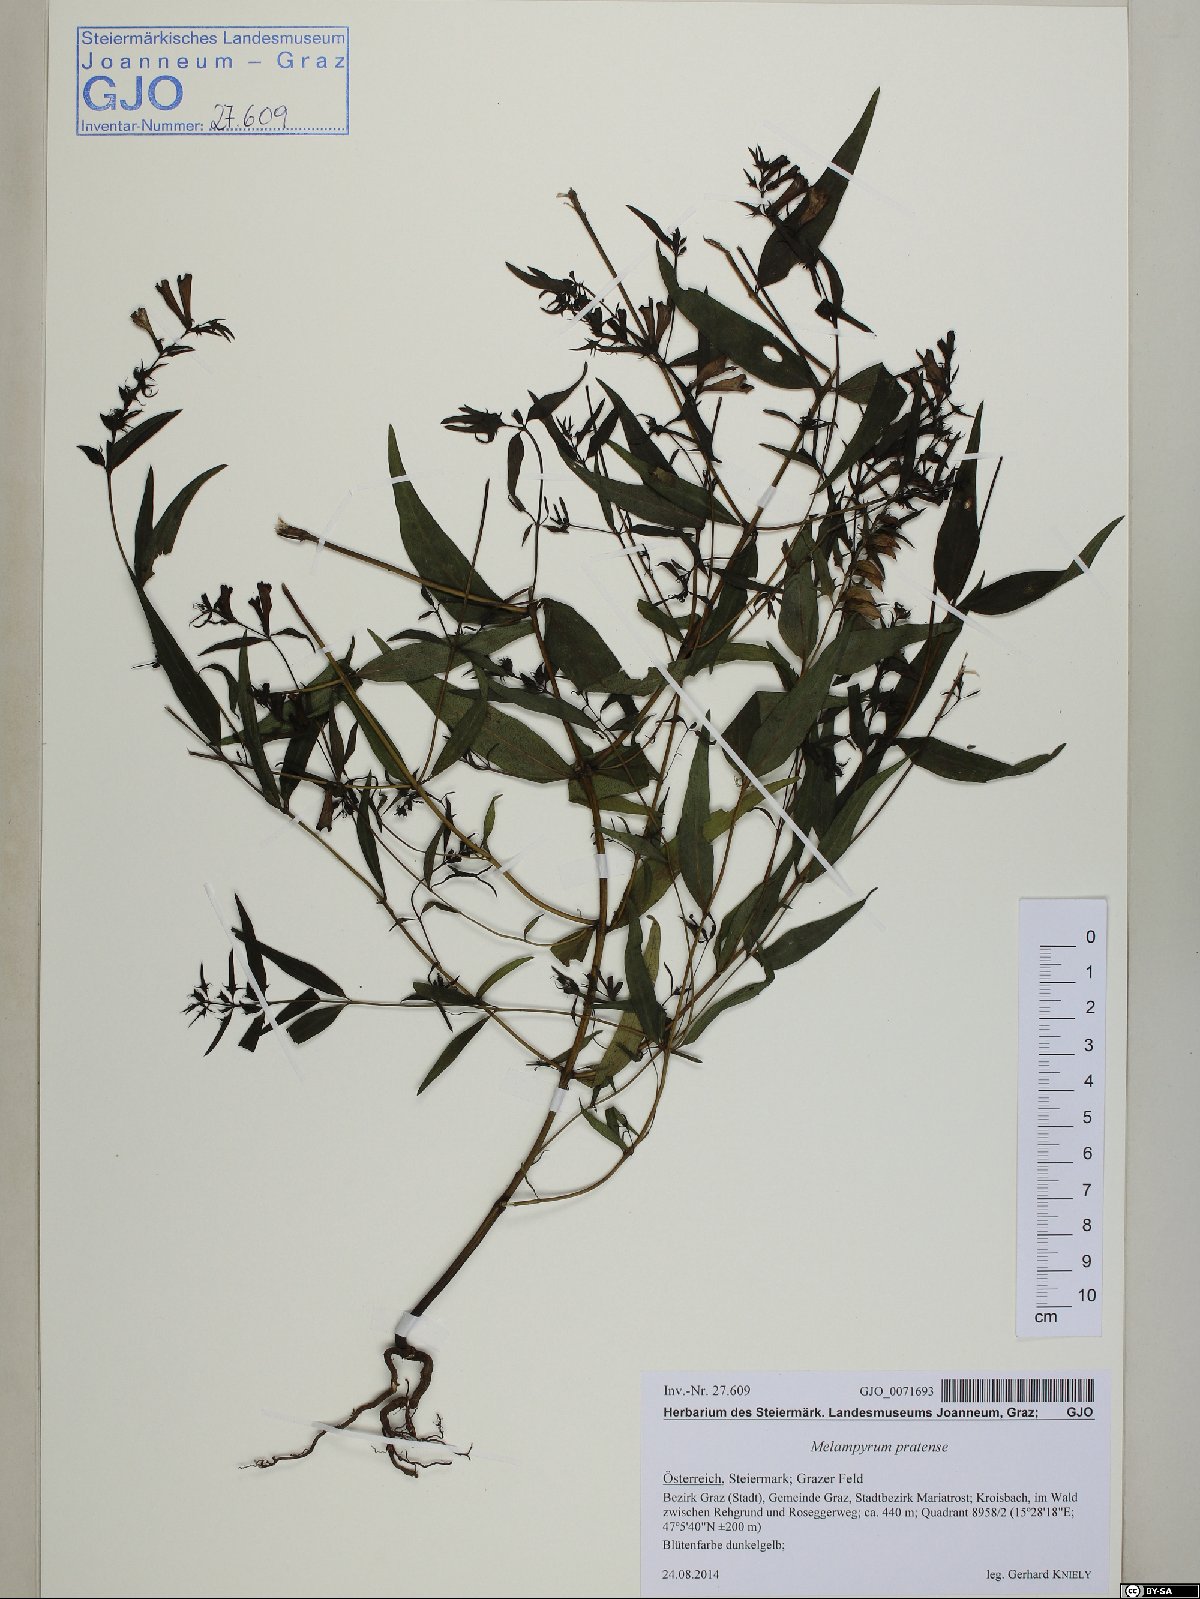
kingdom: Plantae
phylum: Tracheophyta
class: Magnoliopsida
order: Lamiales
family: Orobanchaceae
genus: Melampyrum
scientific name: Melampyrum pratense
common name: Common cow-wheat
